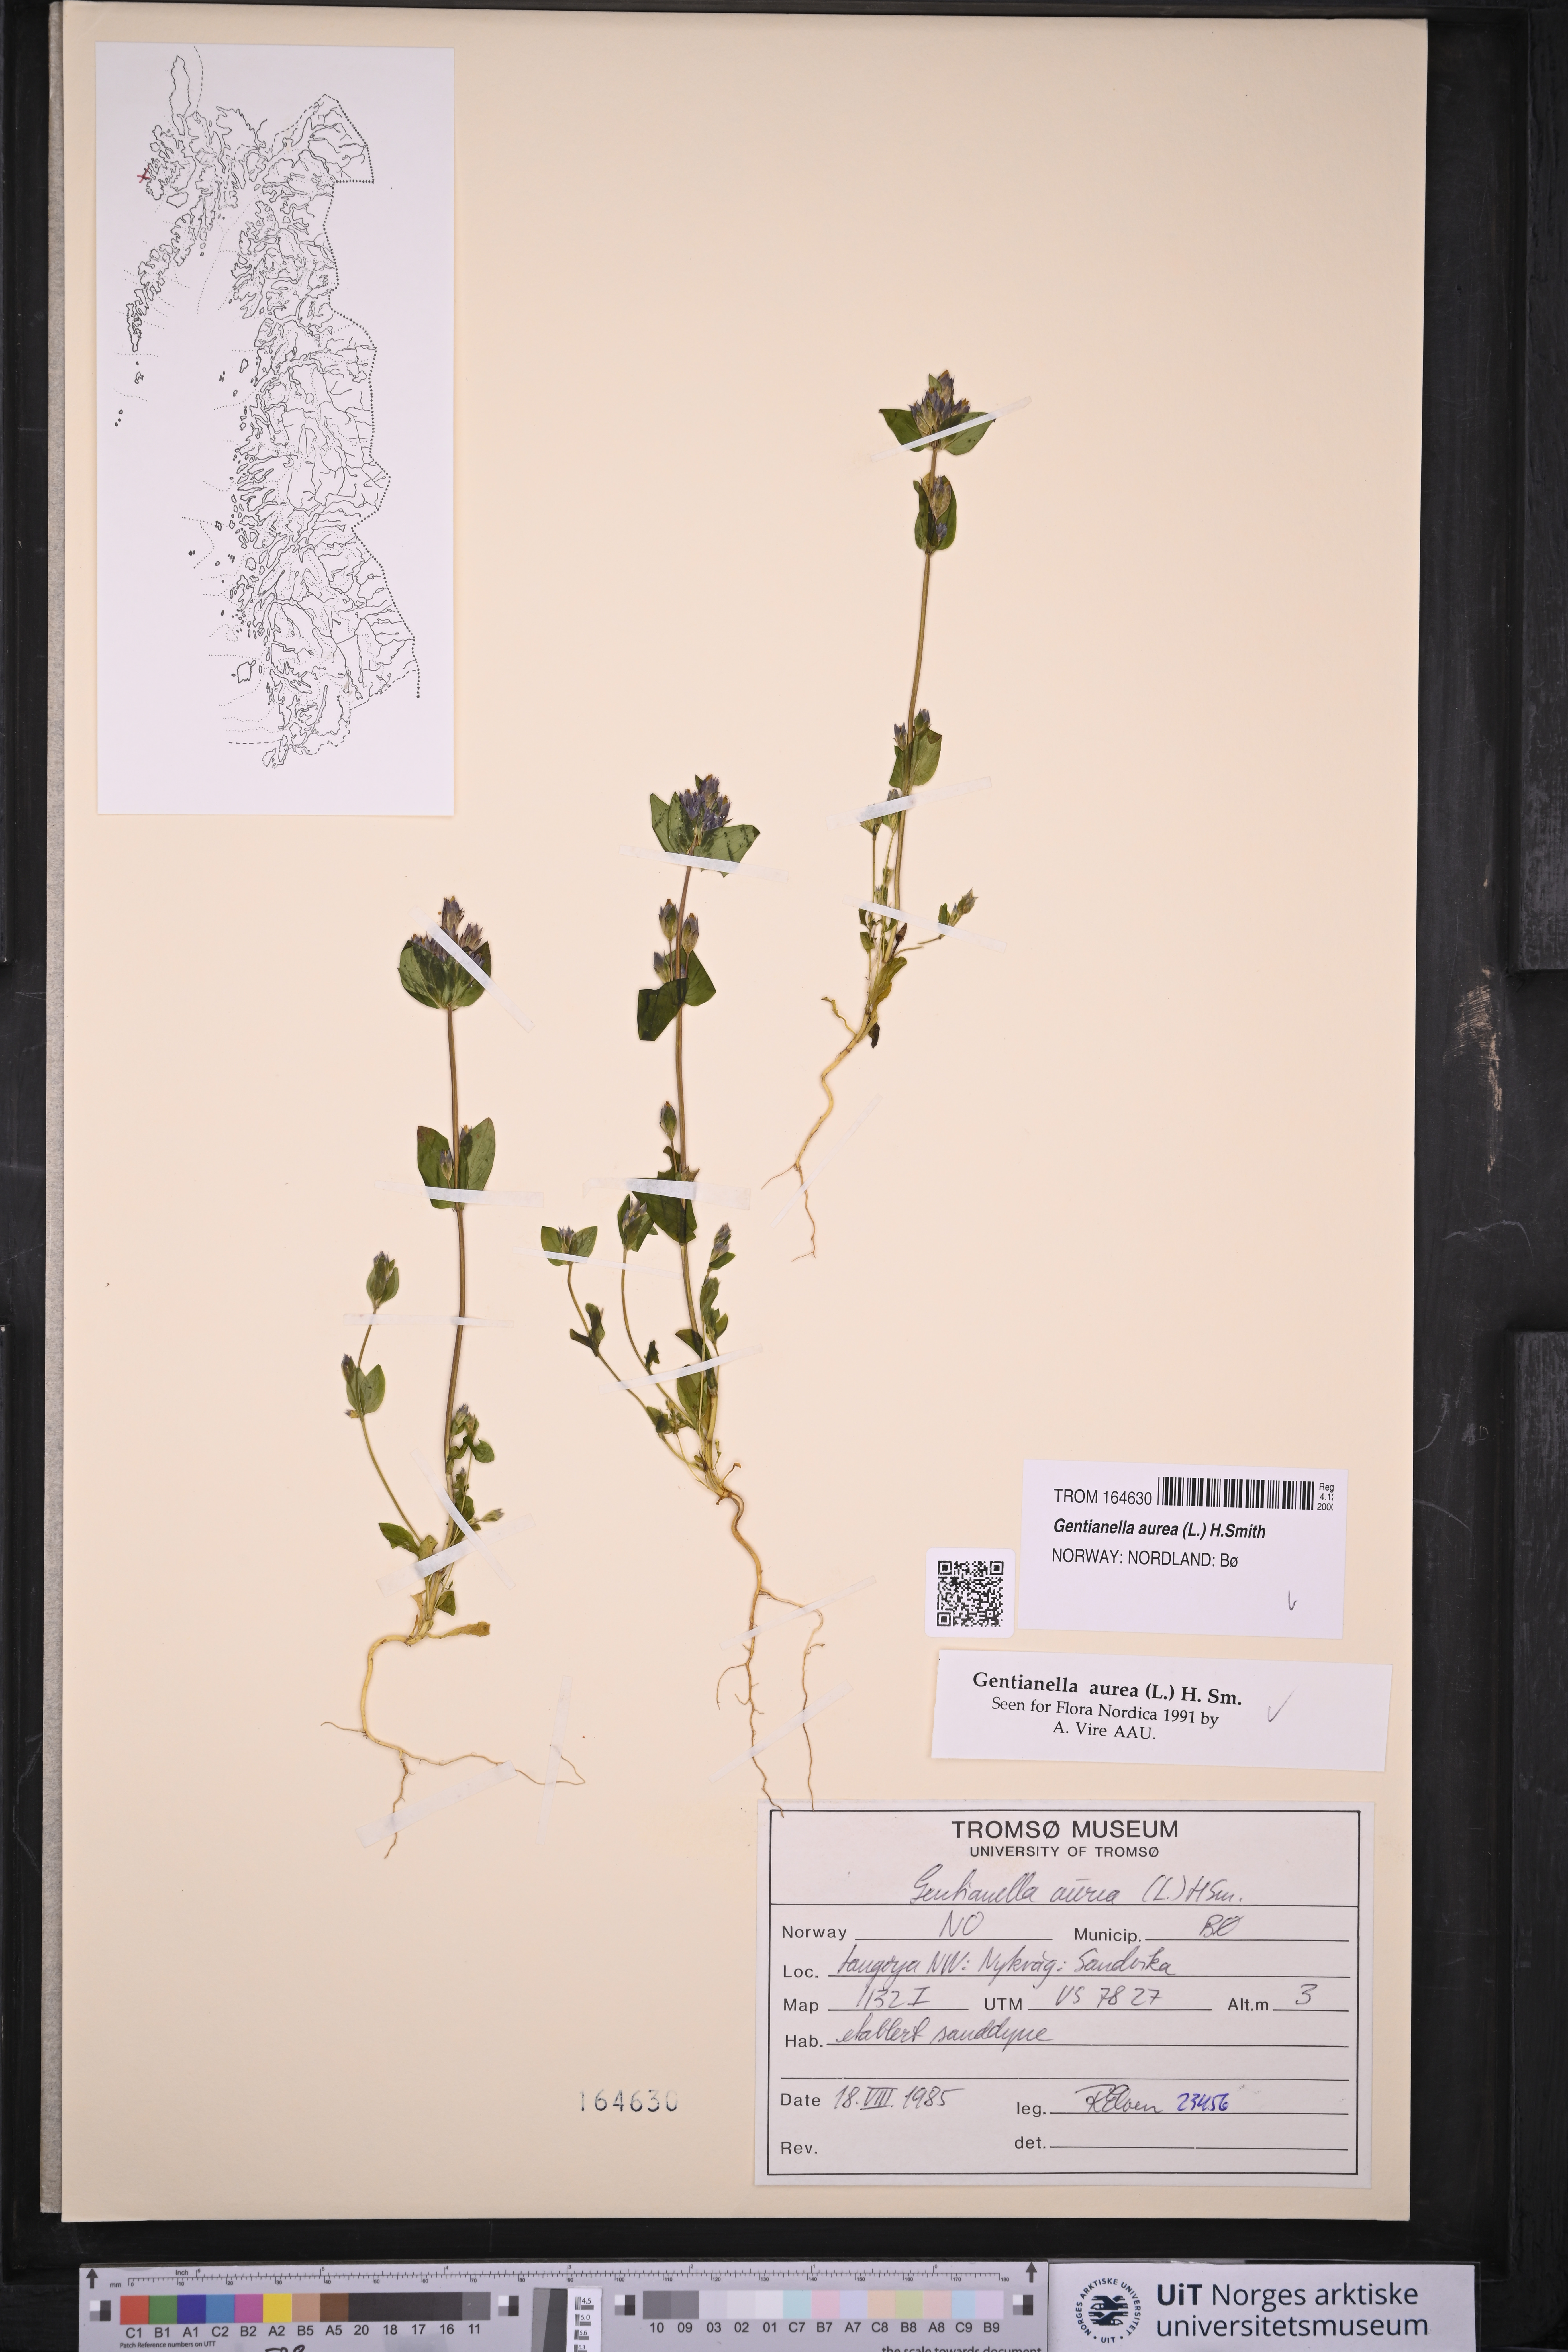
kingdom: Plantae
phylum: Tracheophyta
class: Magnoliopsida
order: Gentianales
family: Gentianaceae
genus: Gentianella
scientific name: Gentianella aurea
